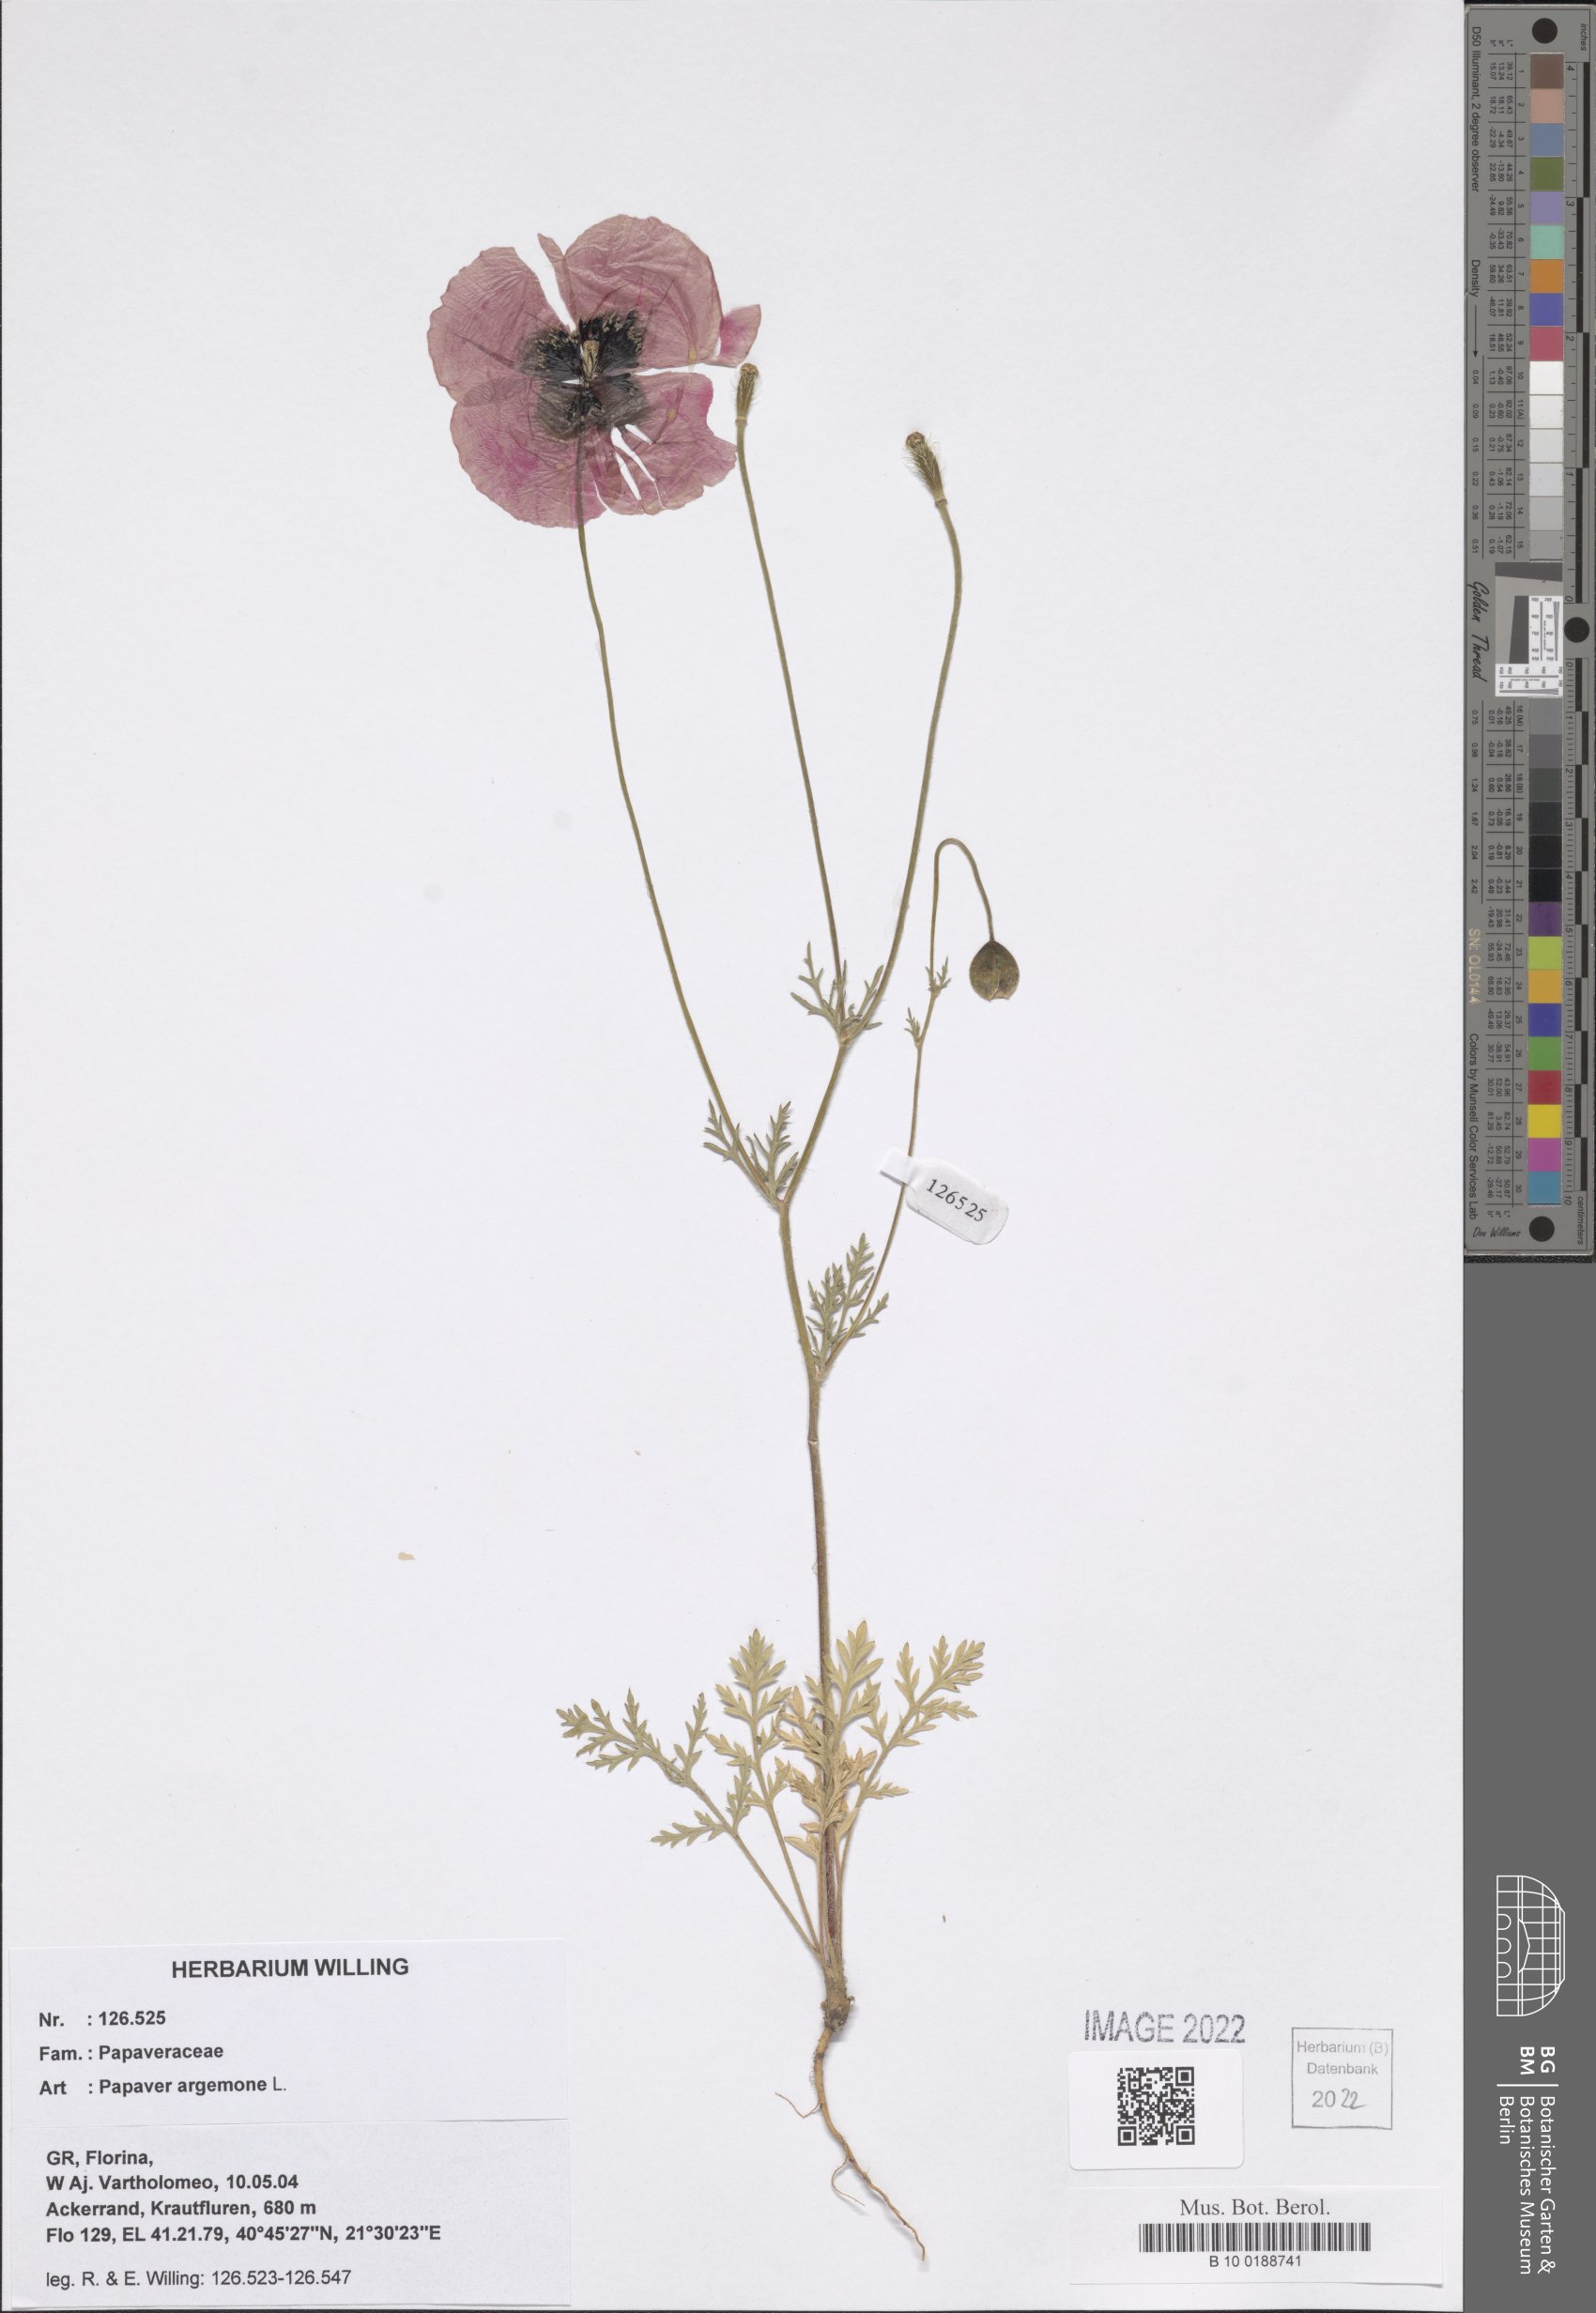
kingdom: Plantae
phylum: Tracheophyta
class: Magnoliopsida
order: Ranunculales
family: Papaveraceae
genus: Roemeria
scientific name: Roemeria argemone
